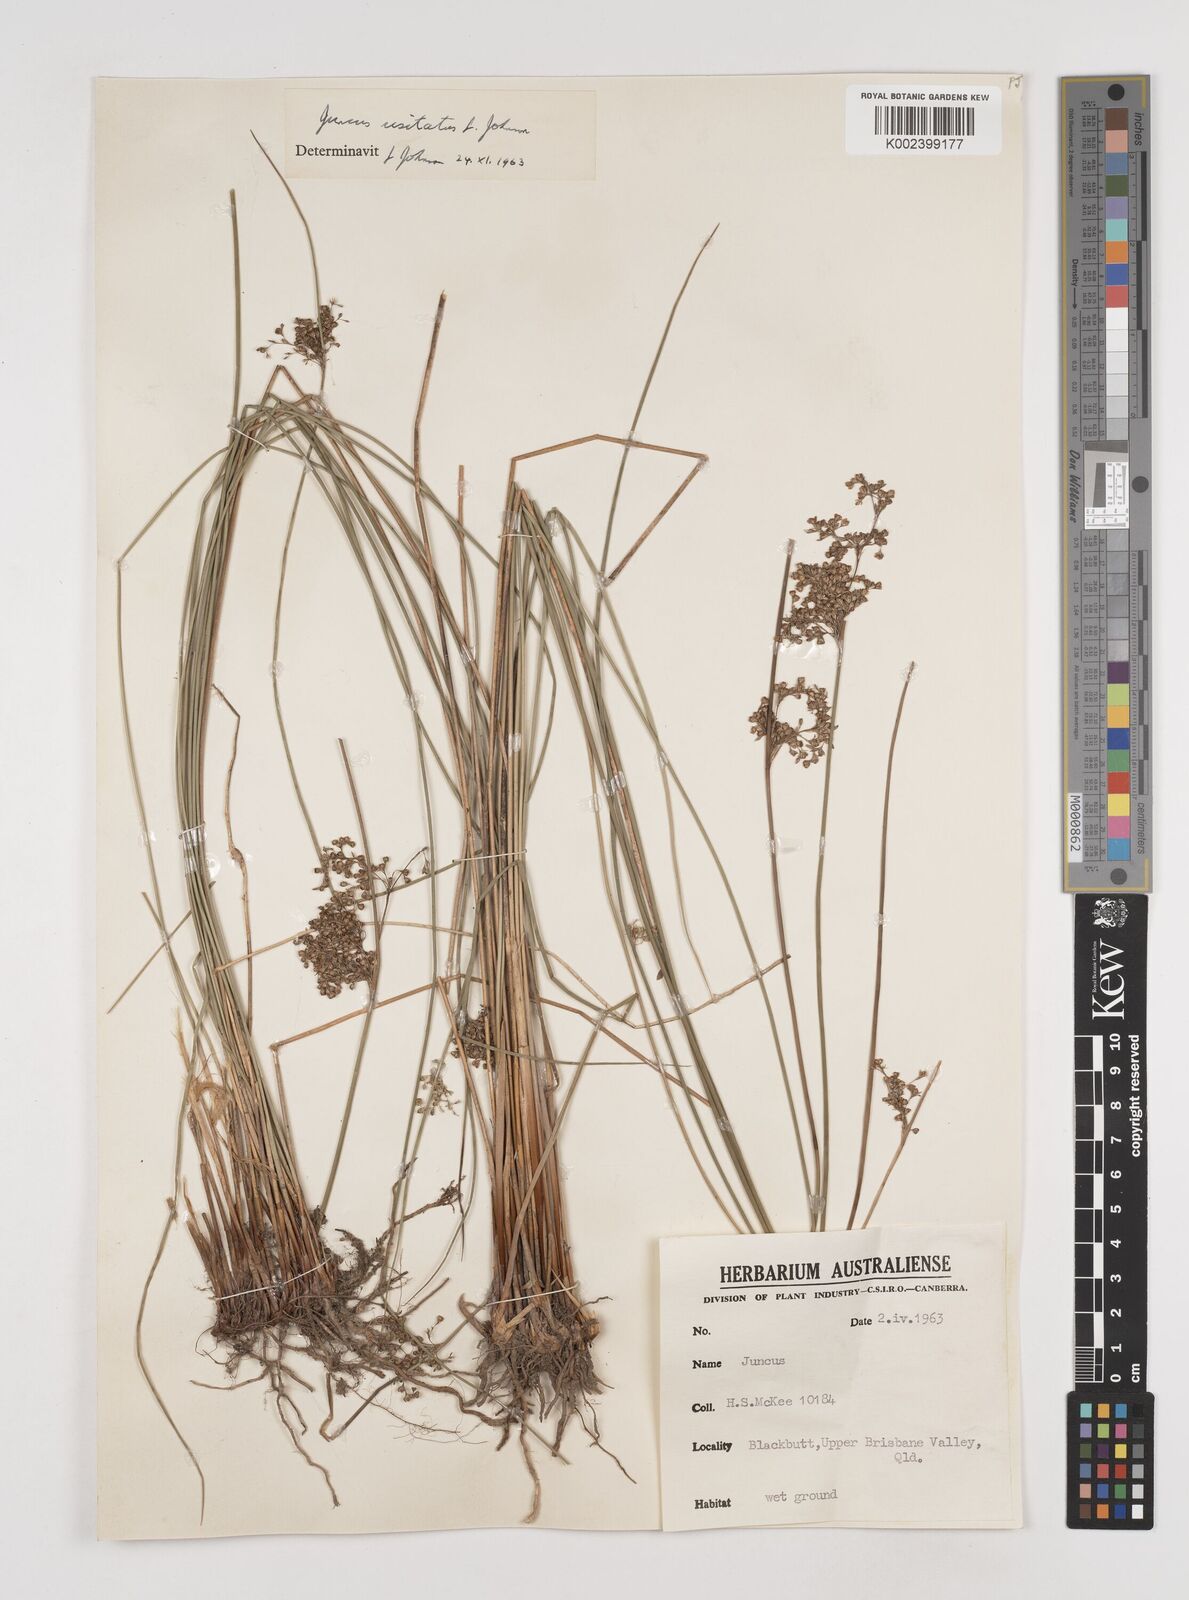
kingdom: Plantae
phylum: Tracheophyta
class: Liliopsida
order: Poales
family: Juncaceae
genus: Juncus
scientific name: Juncus usitatus
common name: Rush
